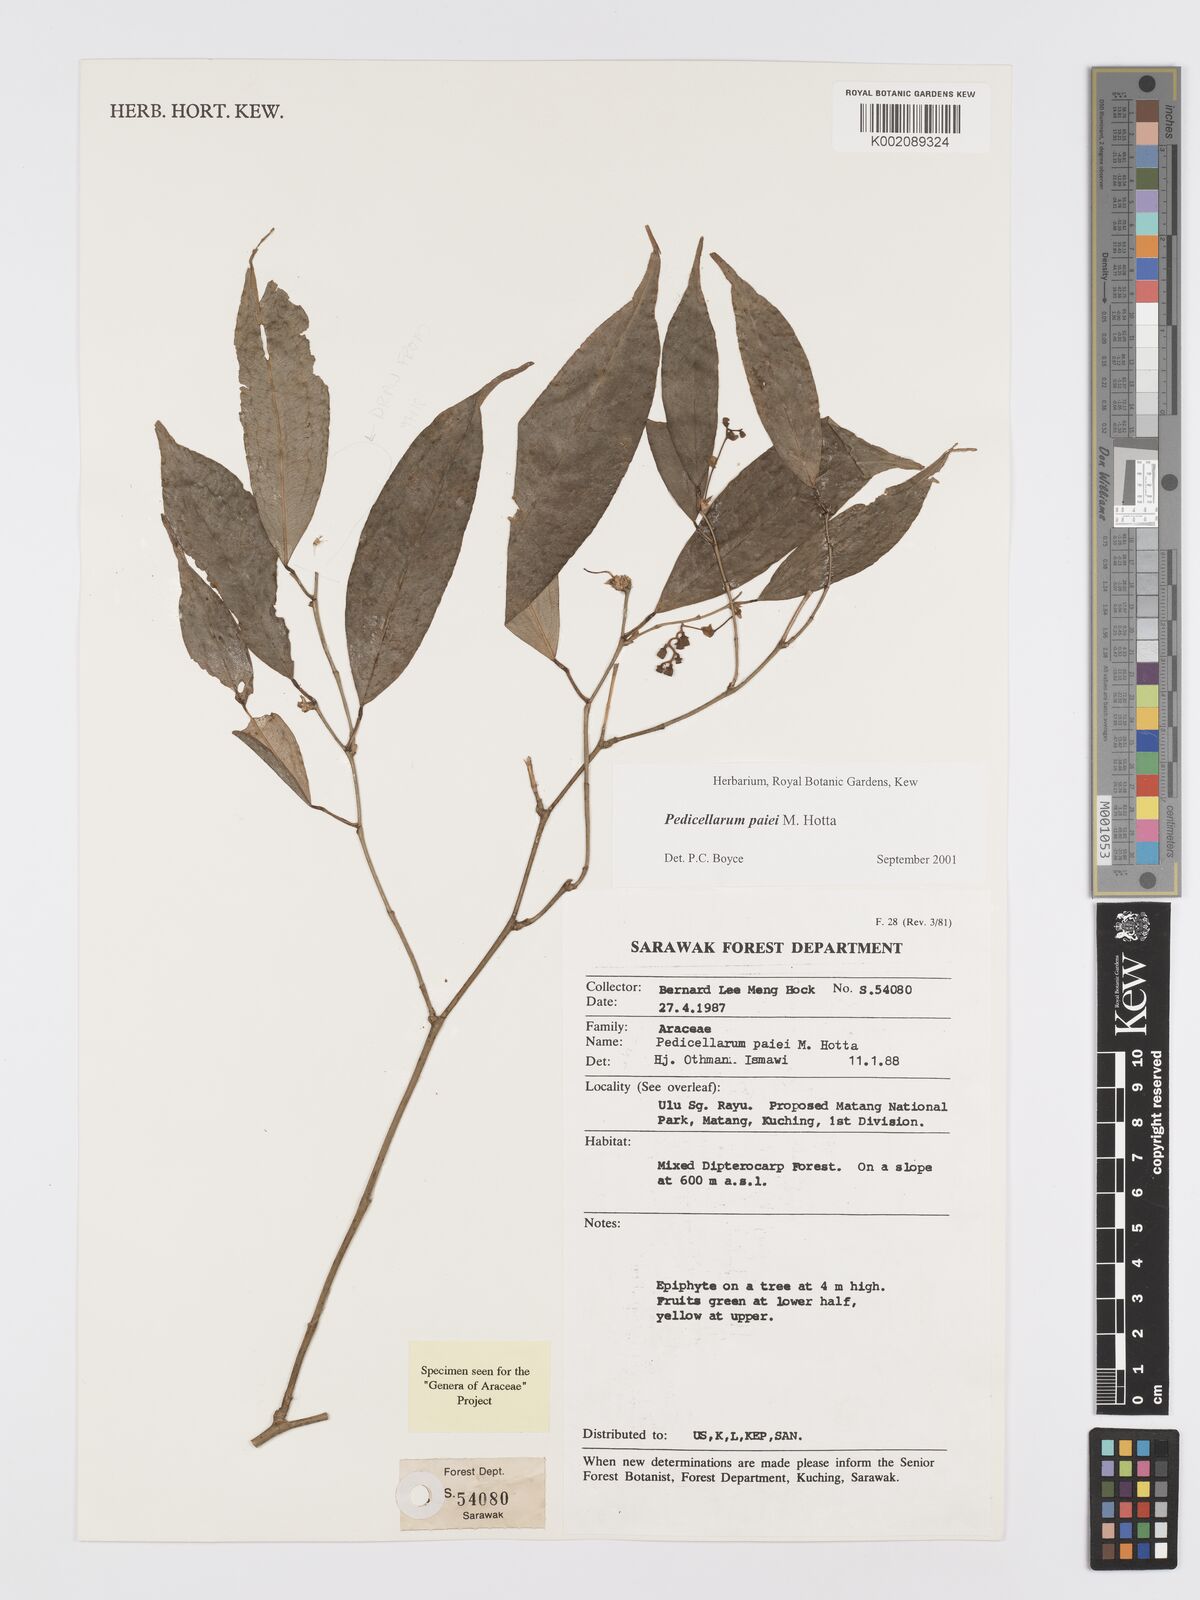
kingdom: Plantae
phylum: Tracheophyta
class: Liliopsida
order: Alismatales
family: Araceae
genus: Pothos
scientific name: Pothos paiei
